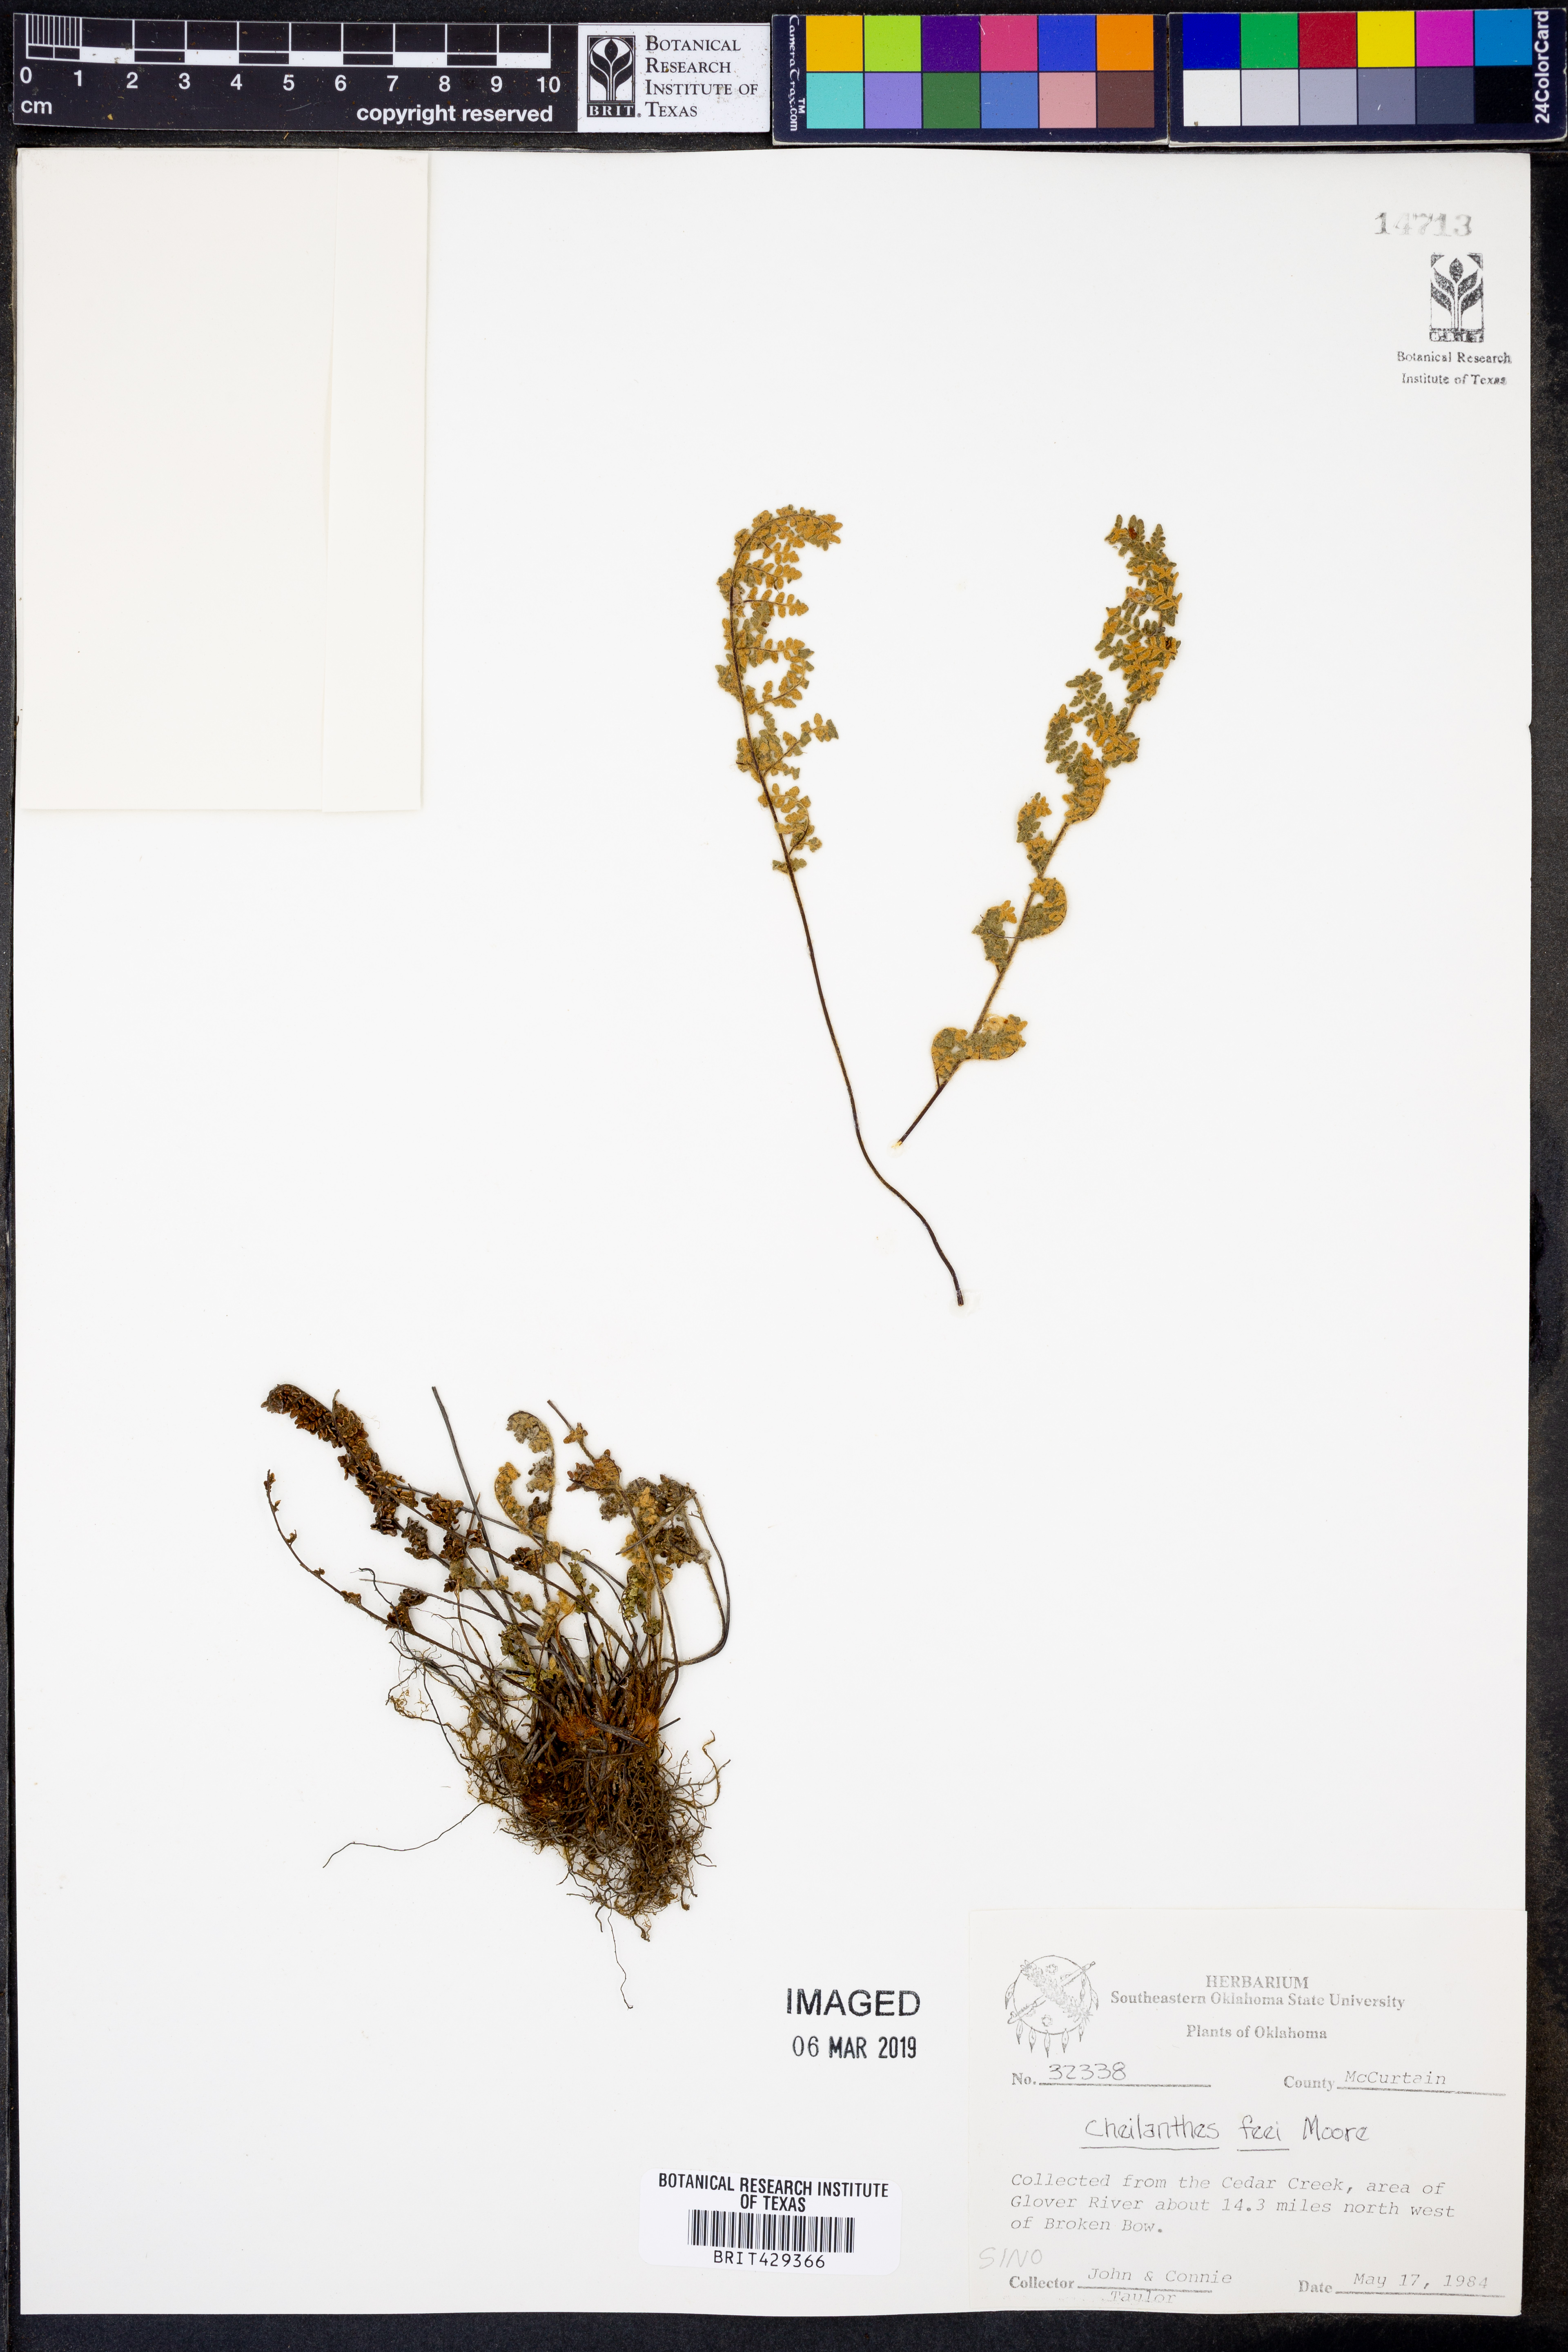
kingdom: Plantae
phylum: Tracheophyta
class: Polypodiopsida
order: Polypodiales
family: Pteridaceae
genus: Myriopteris
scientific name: Myriopteris gracilis
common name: Fee's lip fern
